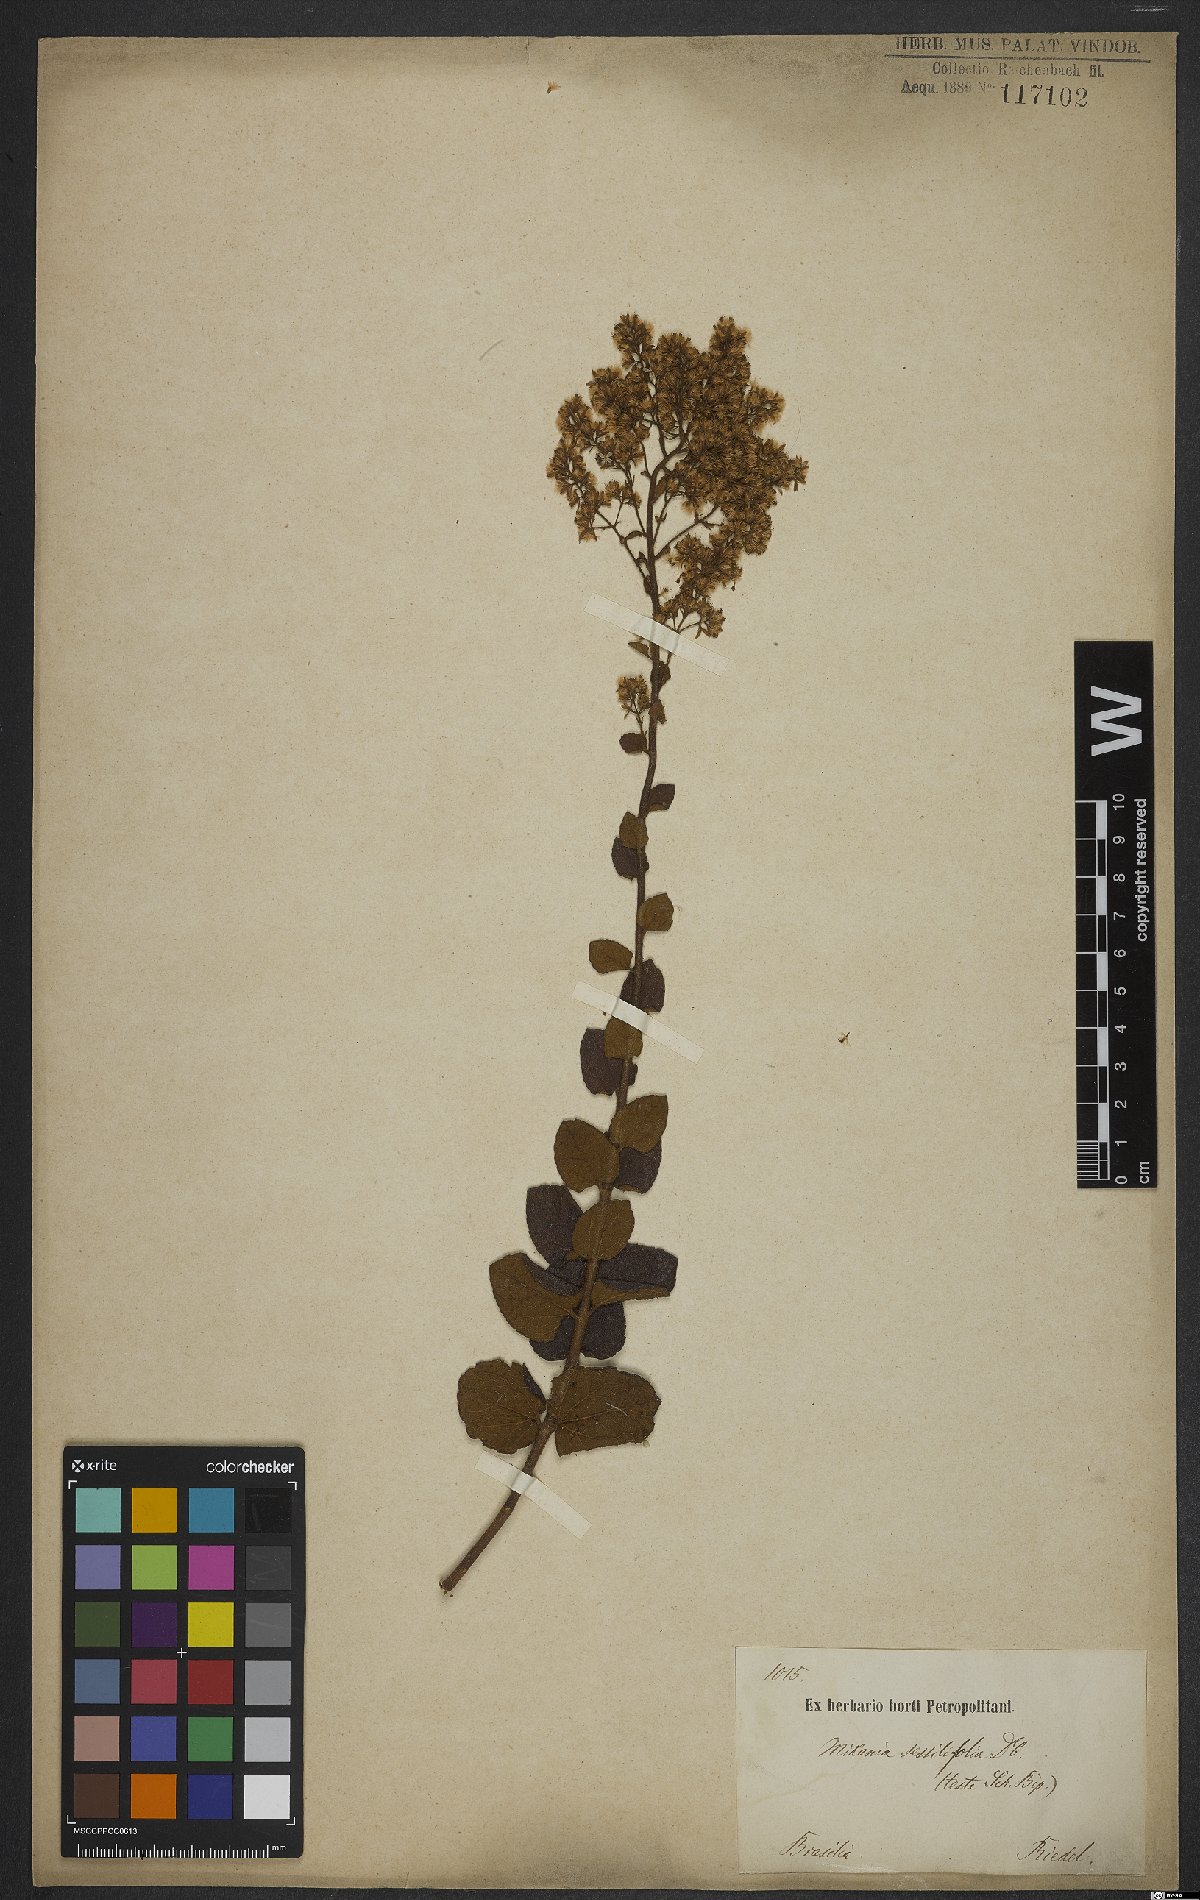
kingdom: Plantae
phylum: Tracheophyta
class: Magnoliopsida
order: Asterales
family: Asteraceae
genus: Mikania
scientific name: Mikania sessilifolia
